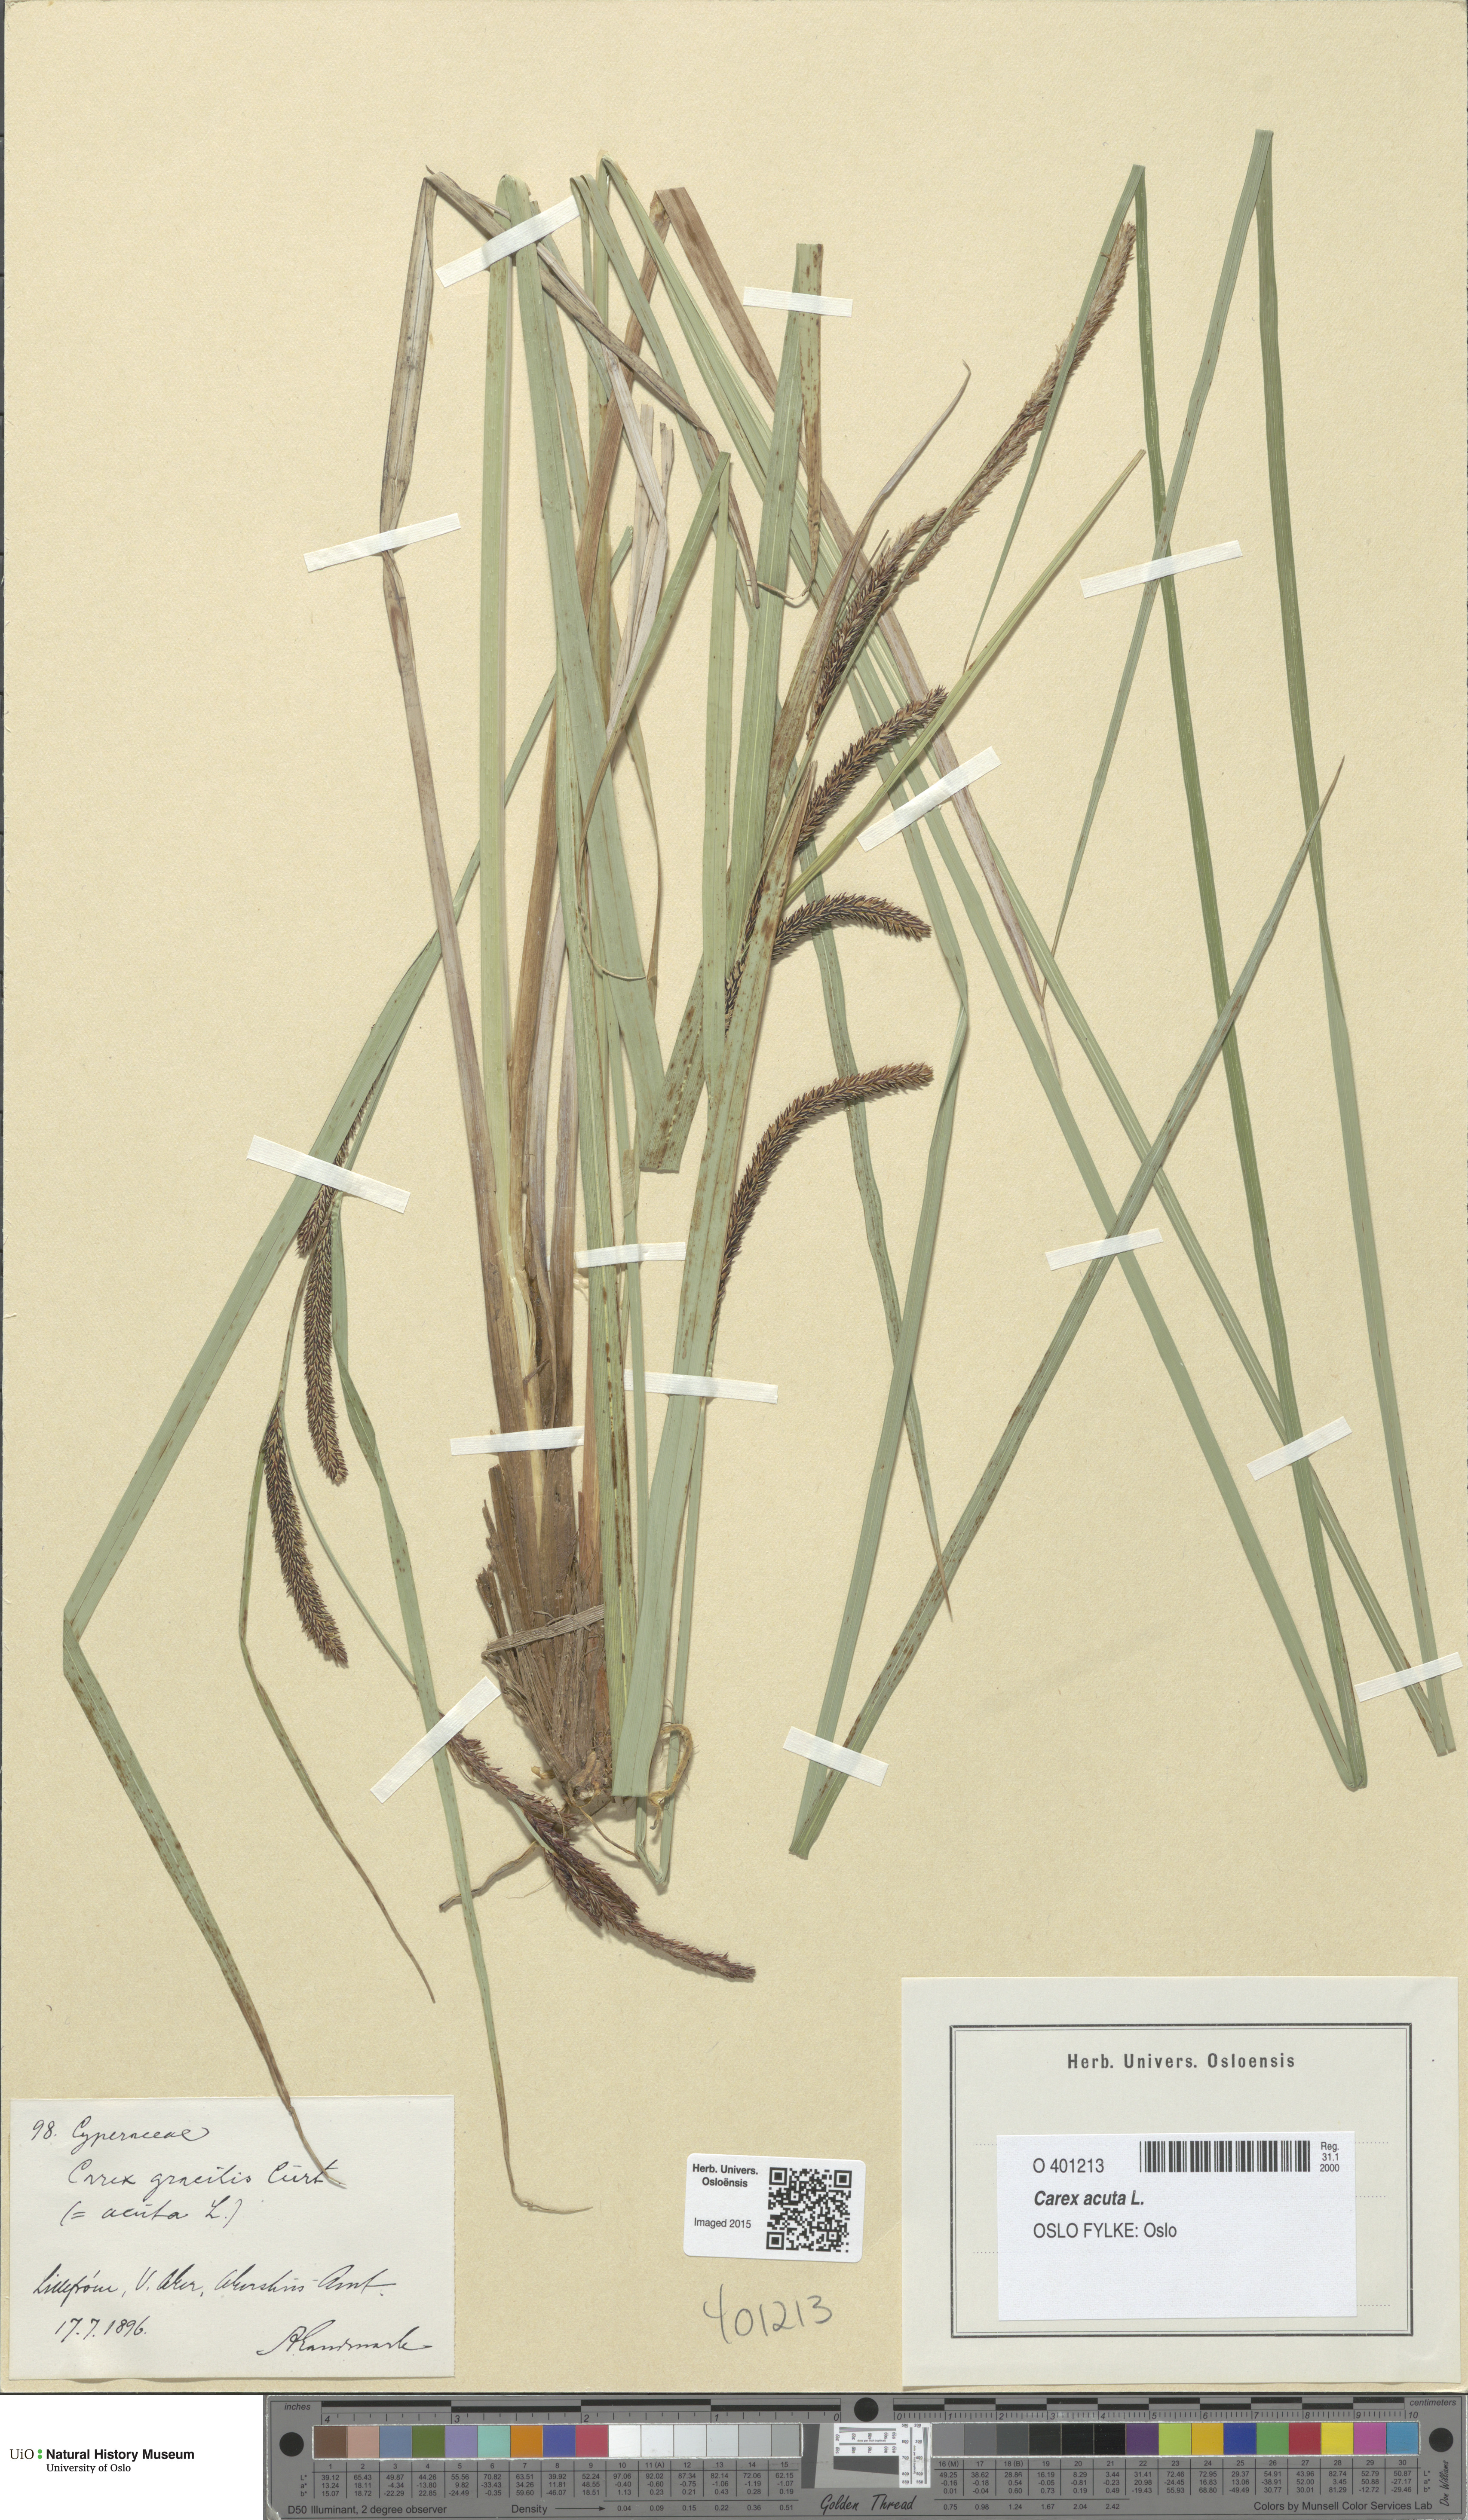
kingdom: Plantae
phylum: Tracheophyta
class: Liliopsida
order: Poales
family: Cyperaceae
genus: Carex
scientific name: Carex acuta
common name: Slender tufted-sedge
